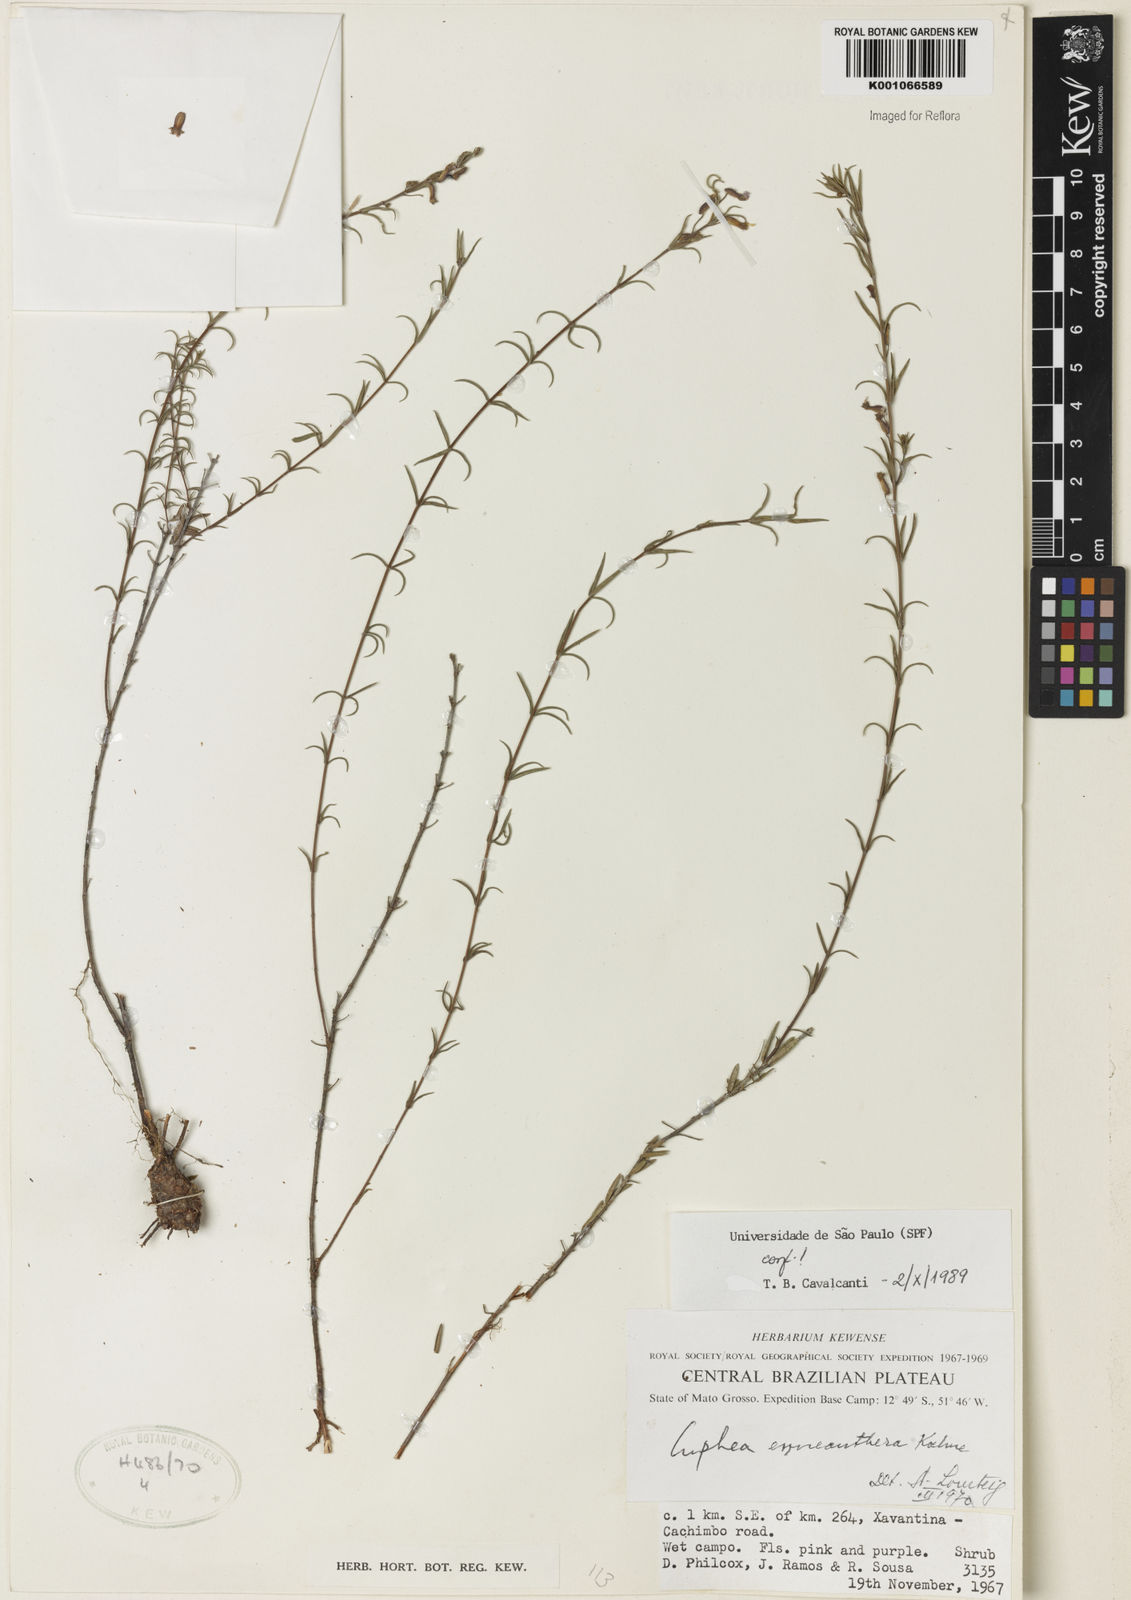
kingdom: Plantae
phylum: Tracheophyta
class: Magnoliopsida
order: Myrtales
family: Lythraceae
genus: Cuphea
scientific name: Cuphea retrorsicapilla
